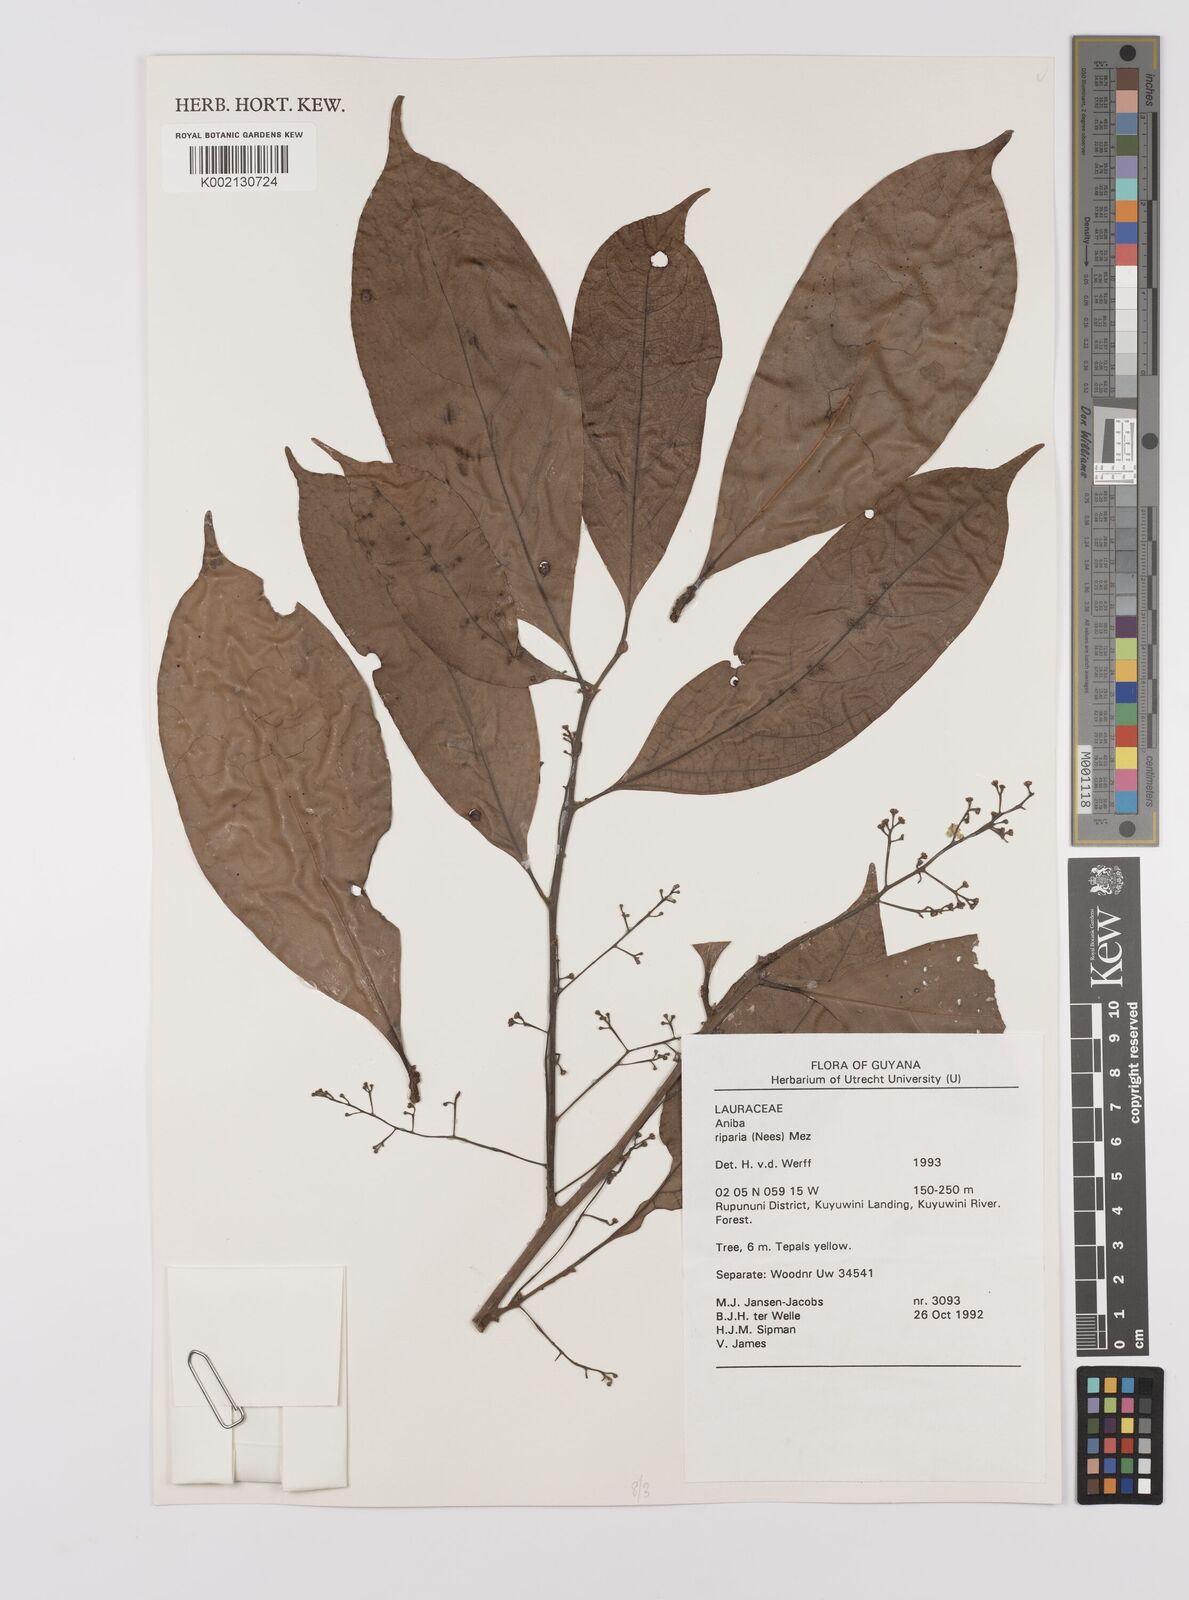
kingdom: Plantae
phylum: Tracheophyta
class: Magnoliopsida
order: Laurales
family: Lauraceae
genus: Aniba
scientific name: Aniba riparia
